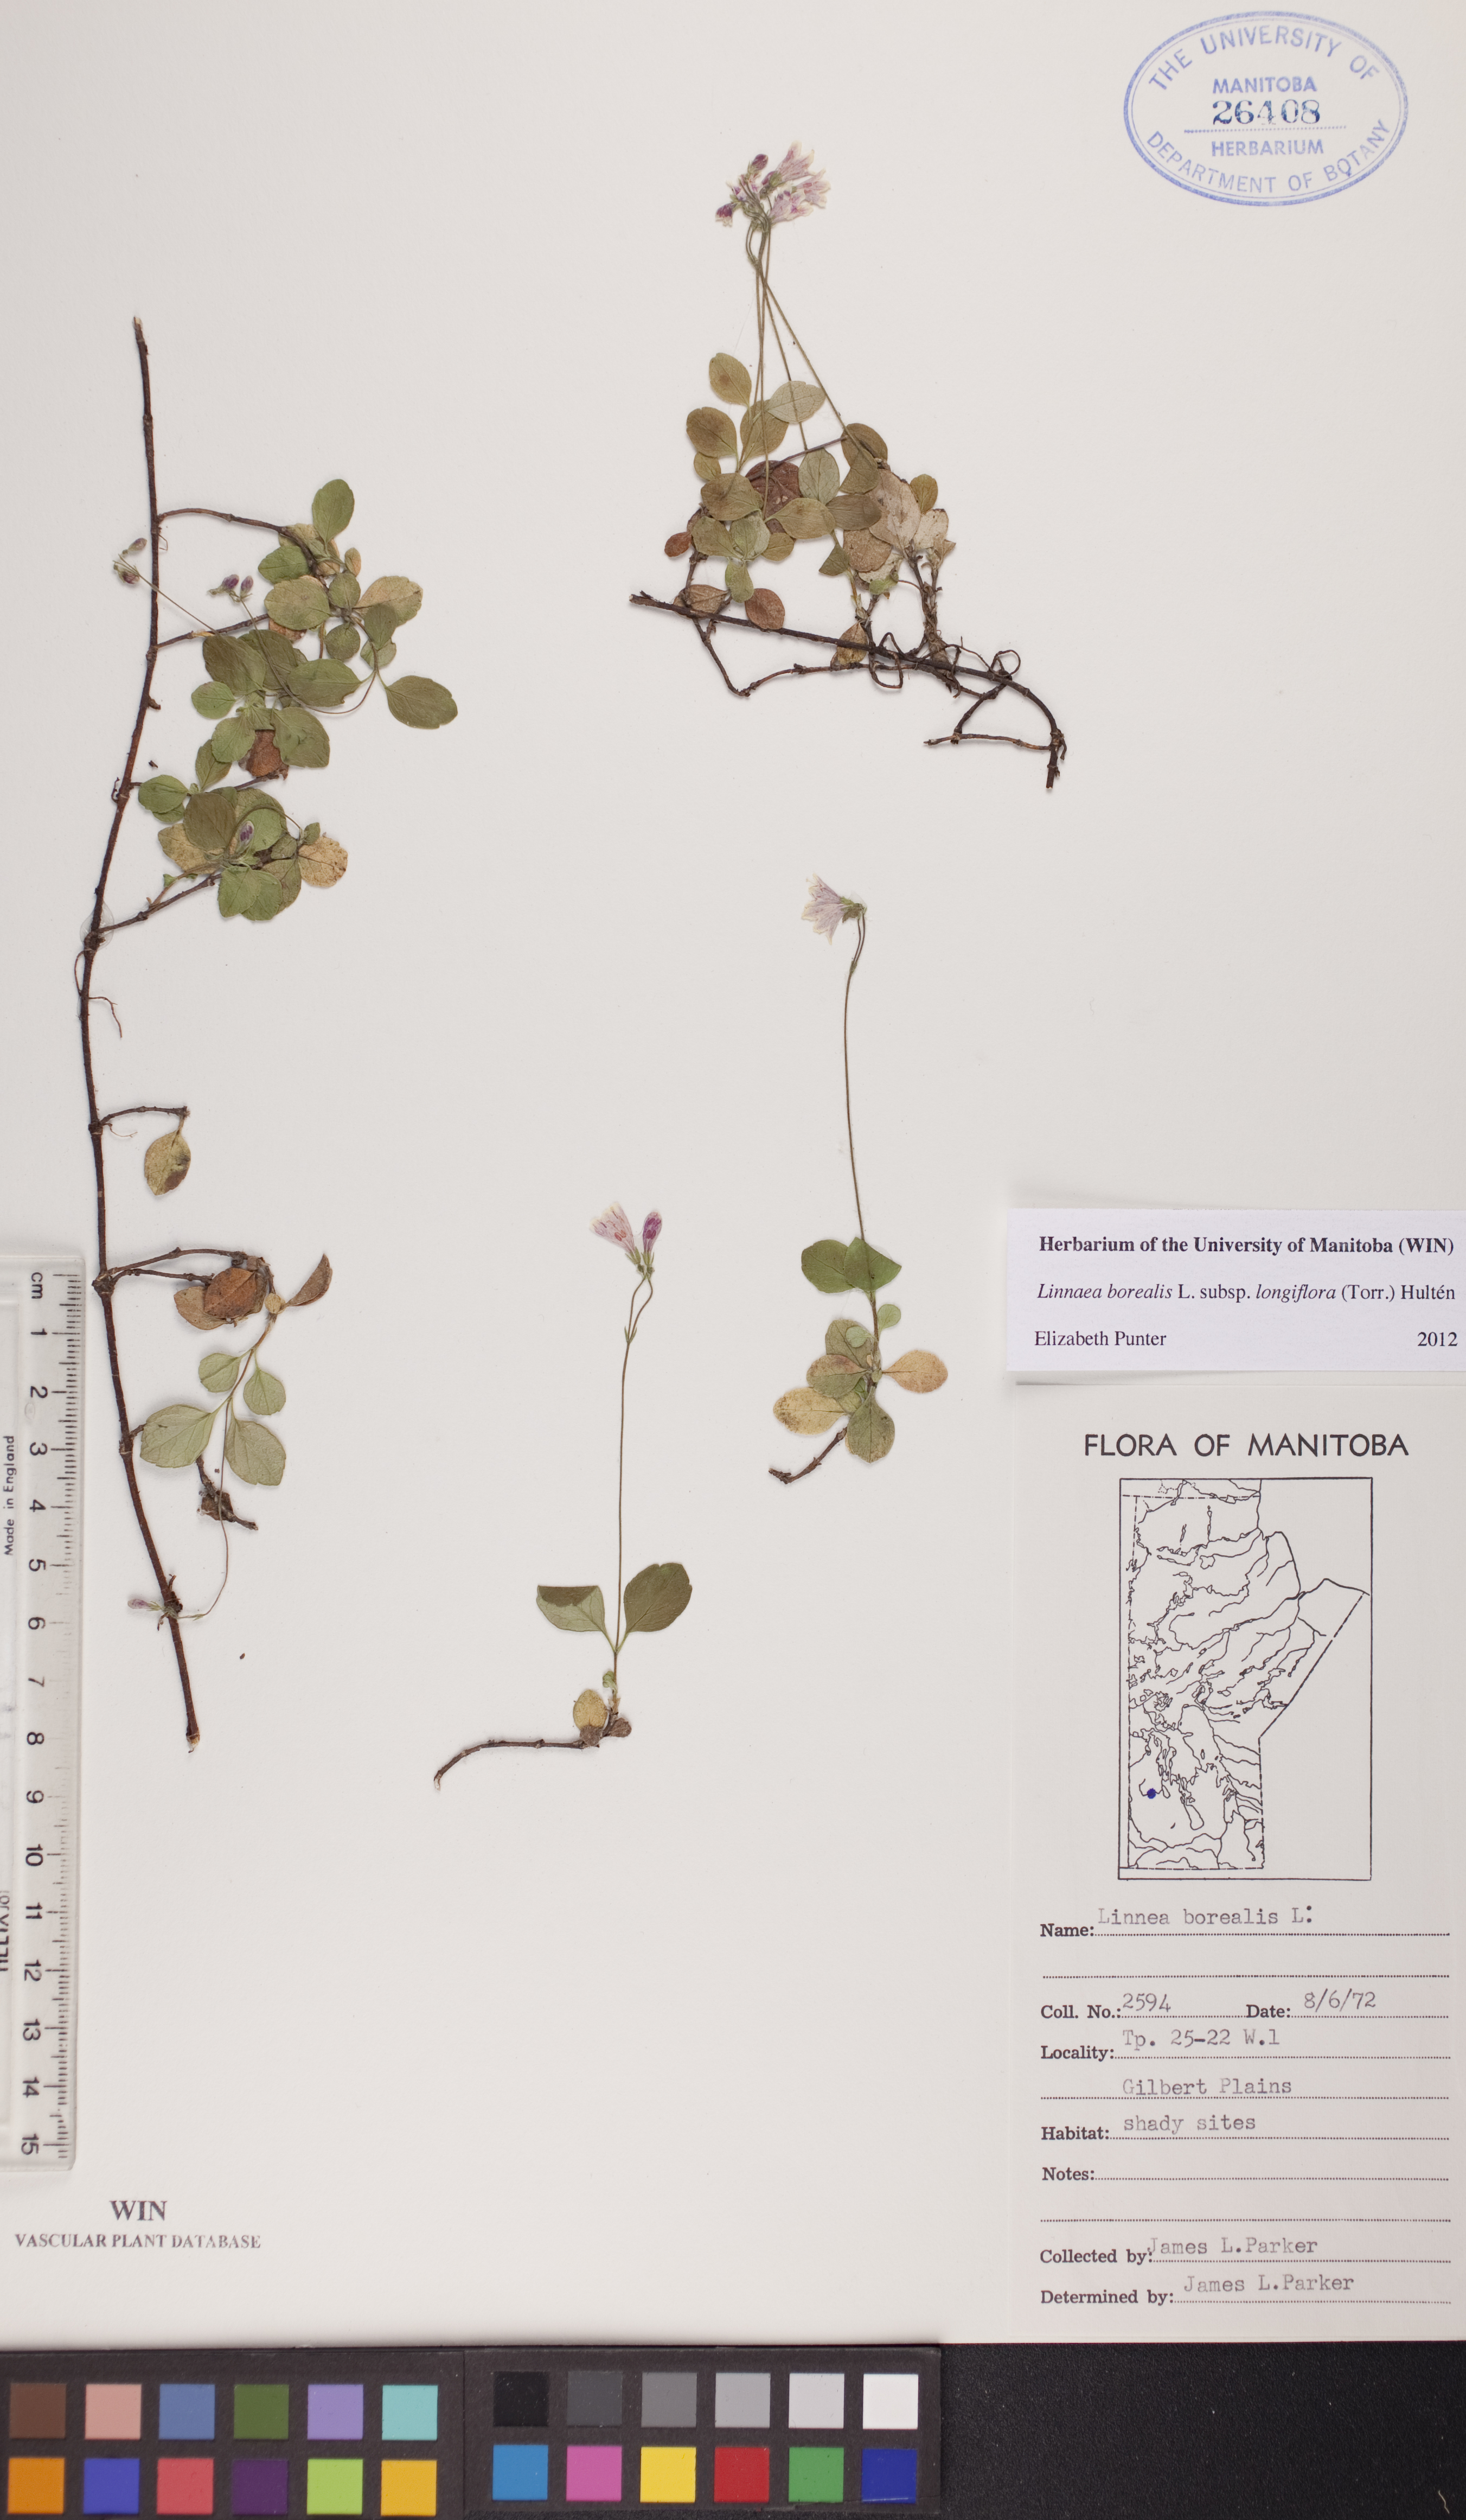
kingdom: Plantae
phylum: Tracheophyta
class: Magnoliopsida
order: Dipsacales
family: Caprifoliaceae
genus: Linnaea
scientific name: Linnaea borealis
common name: Twinflower
